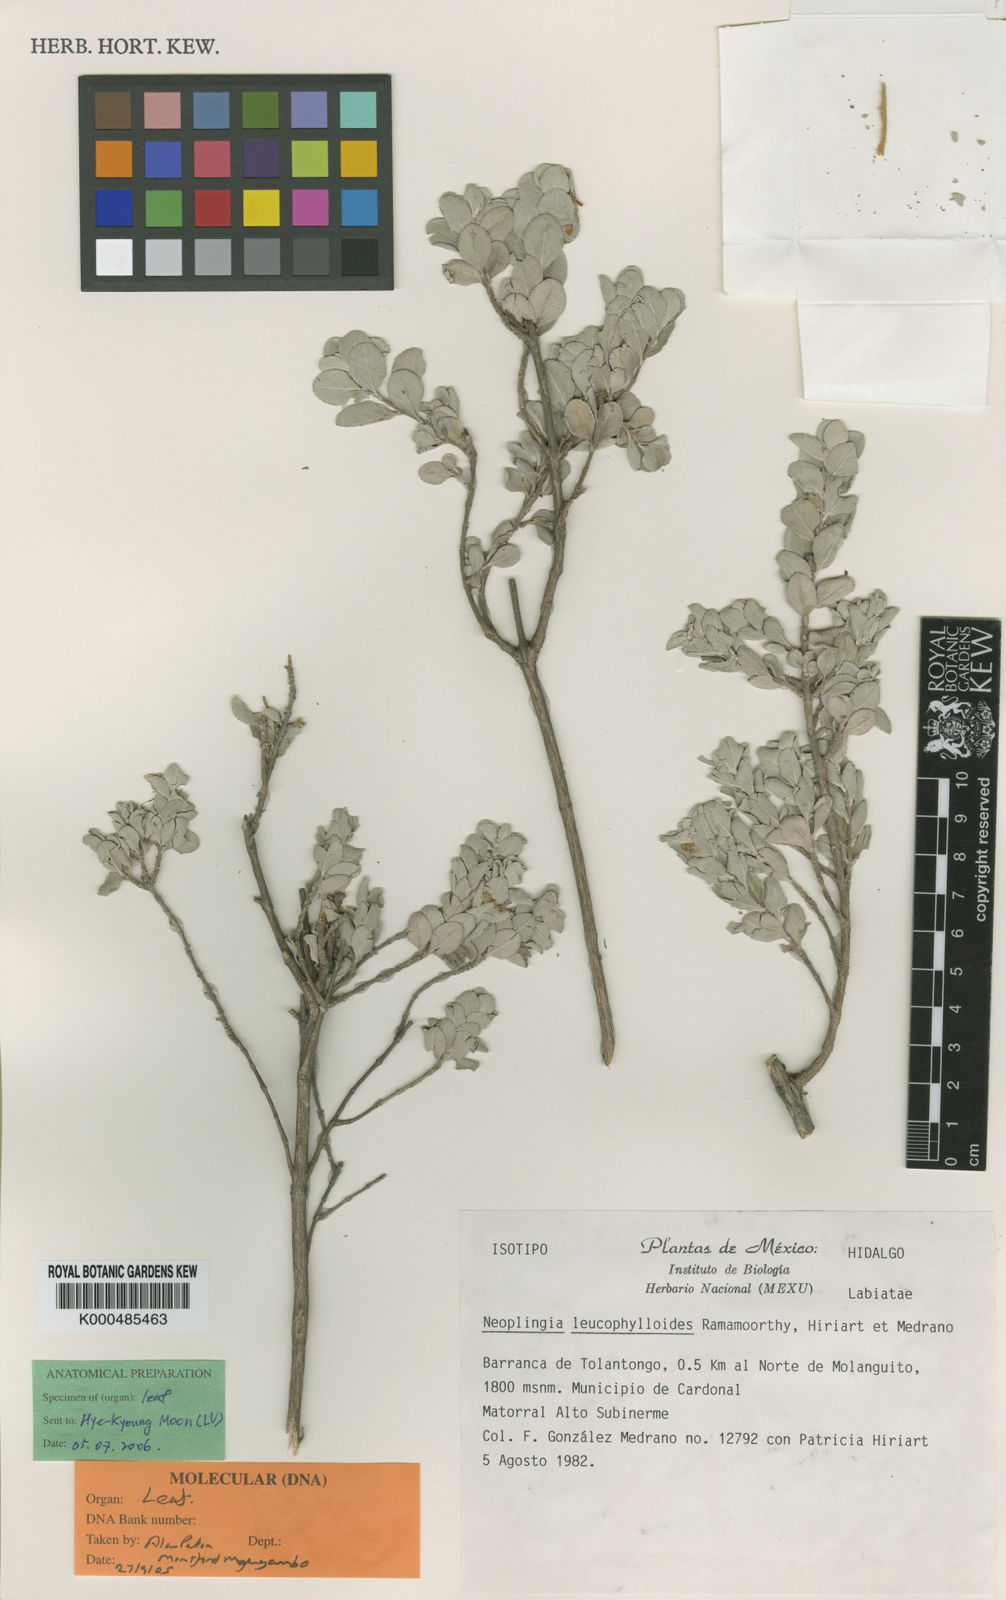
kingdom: Plantae
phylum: Tracheophyta
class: Magnoliopsida
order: Lamiales
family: Lamiaceae
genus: Lepechinia
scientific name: Lepechinia leucophylloides
